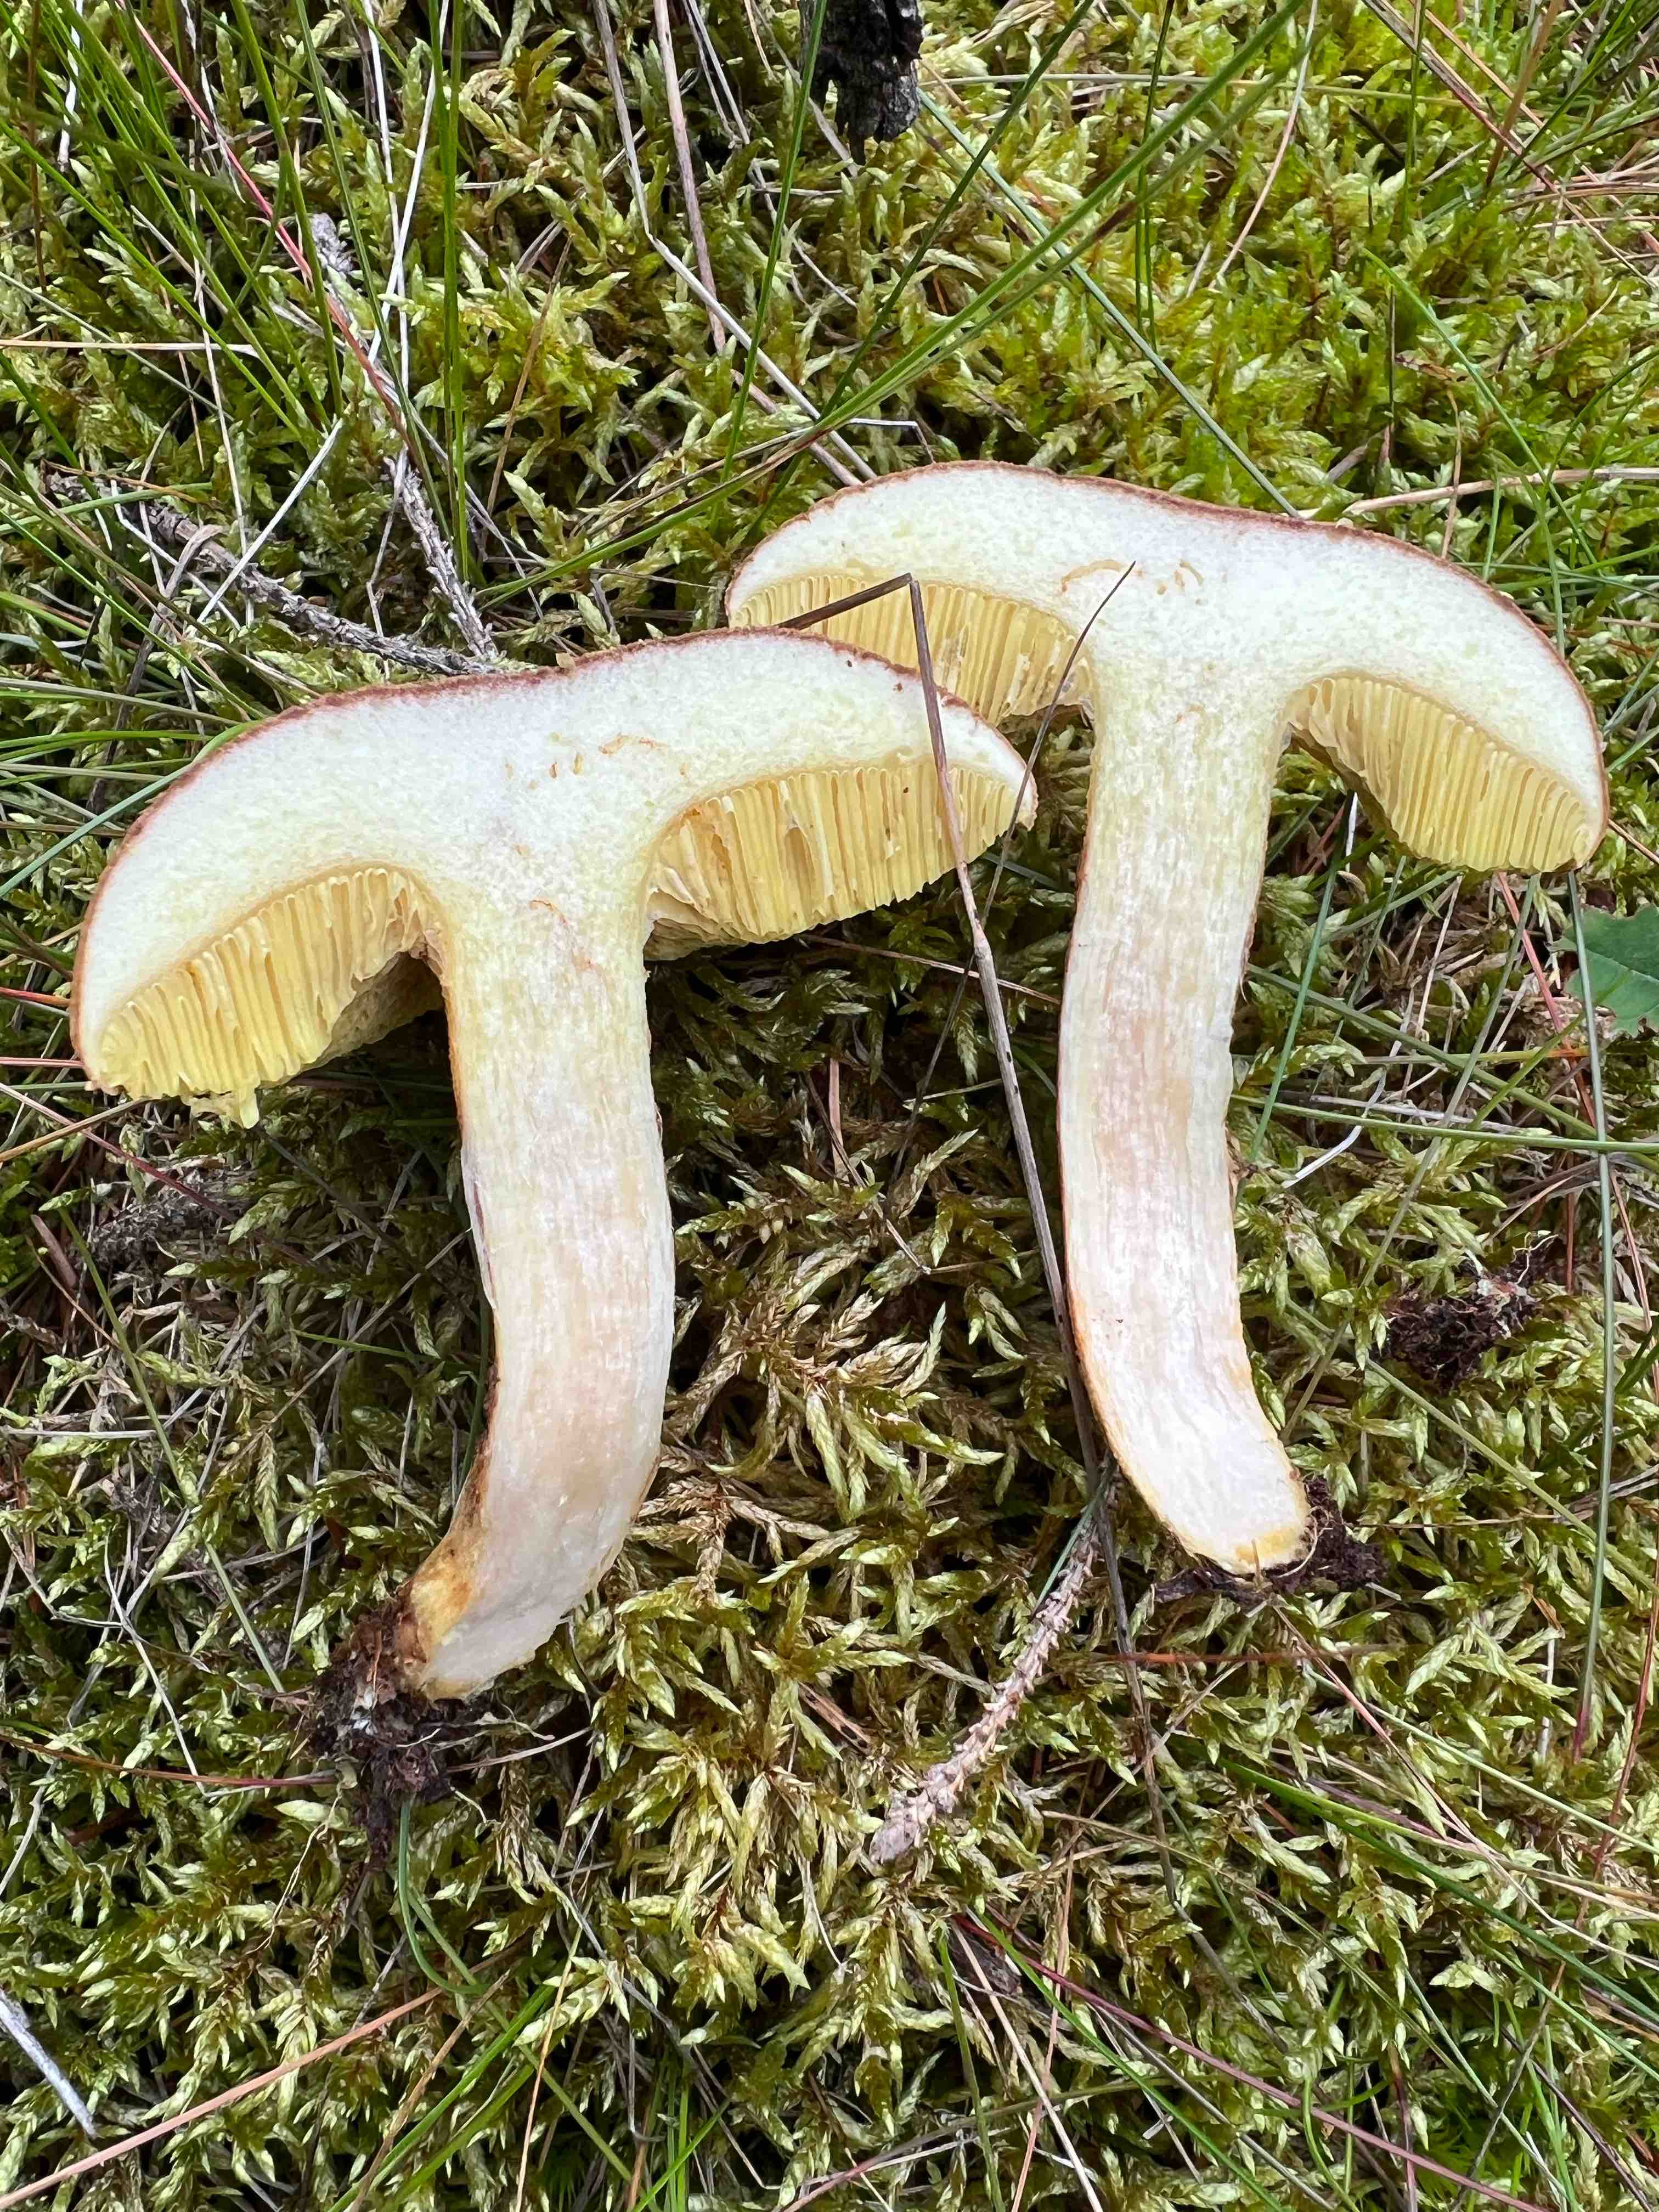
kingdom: Fungi
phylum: Basidiomycota
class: Agaricomycetes
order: Boletales
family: Boletaceae
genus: Xerocomus
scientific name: Xerocomus ferrugineus
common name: vaskeskinds-rørhat
